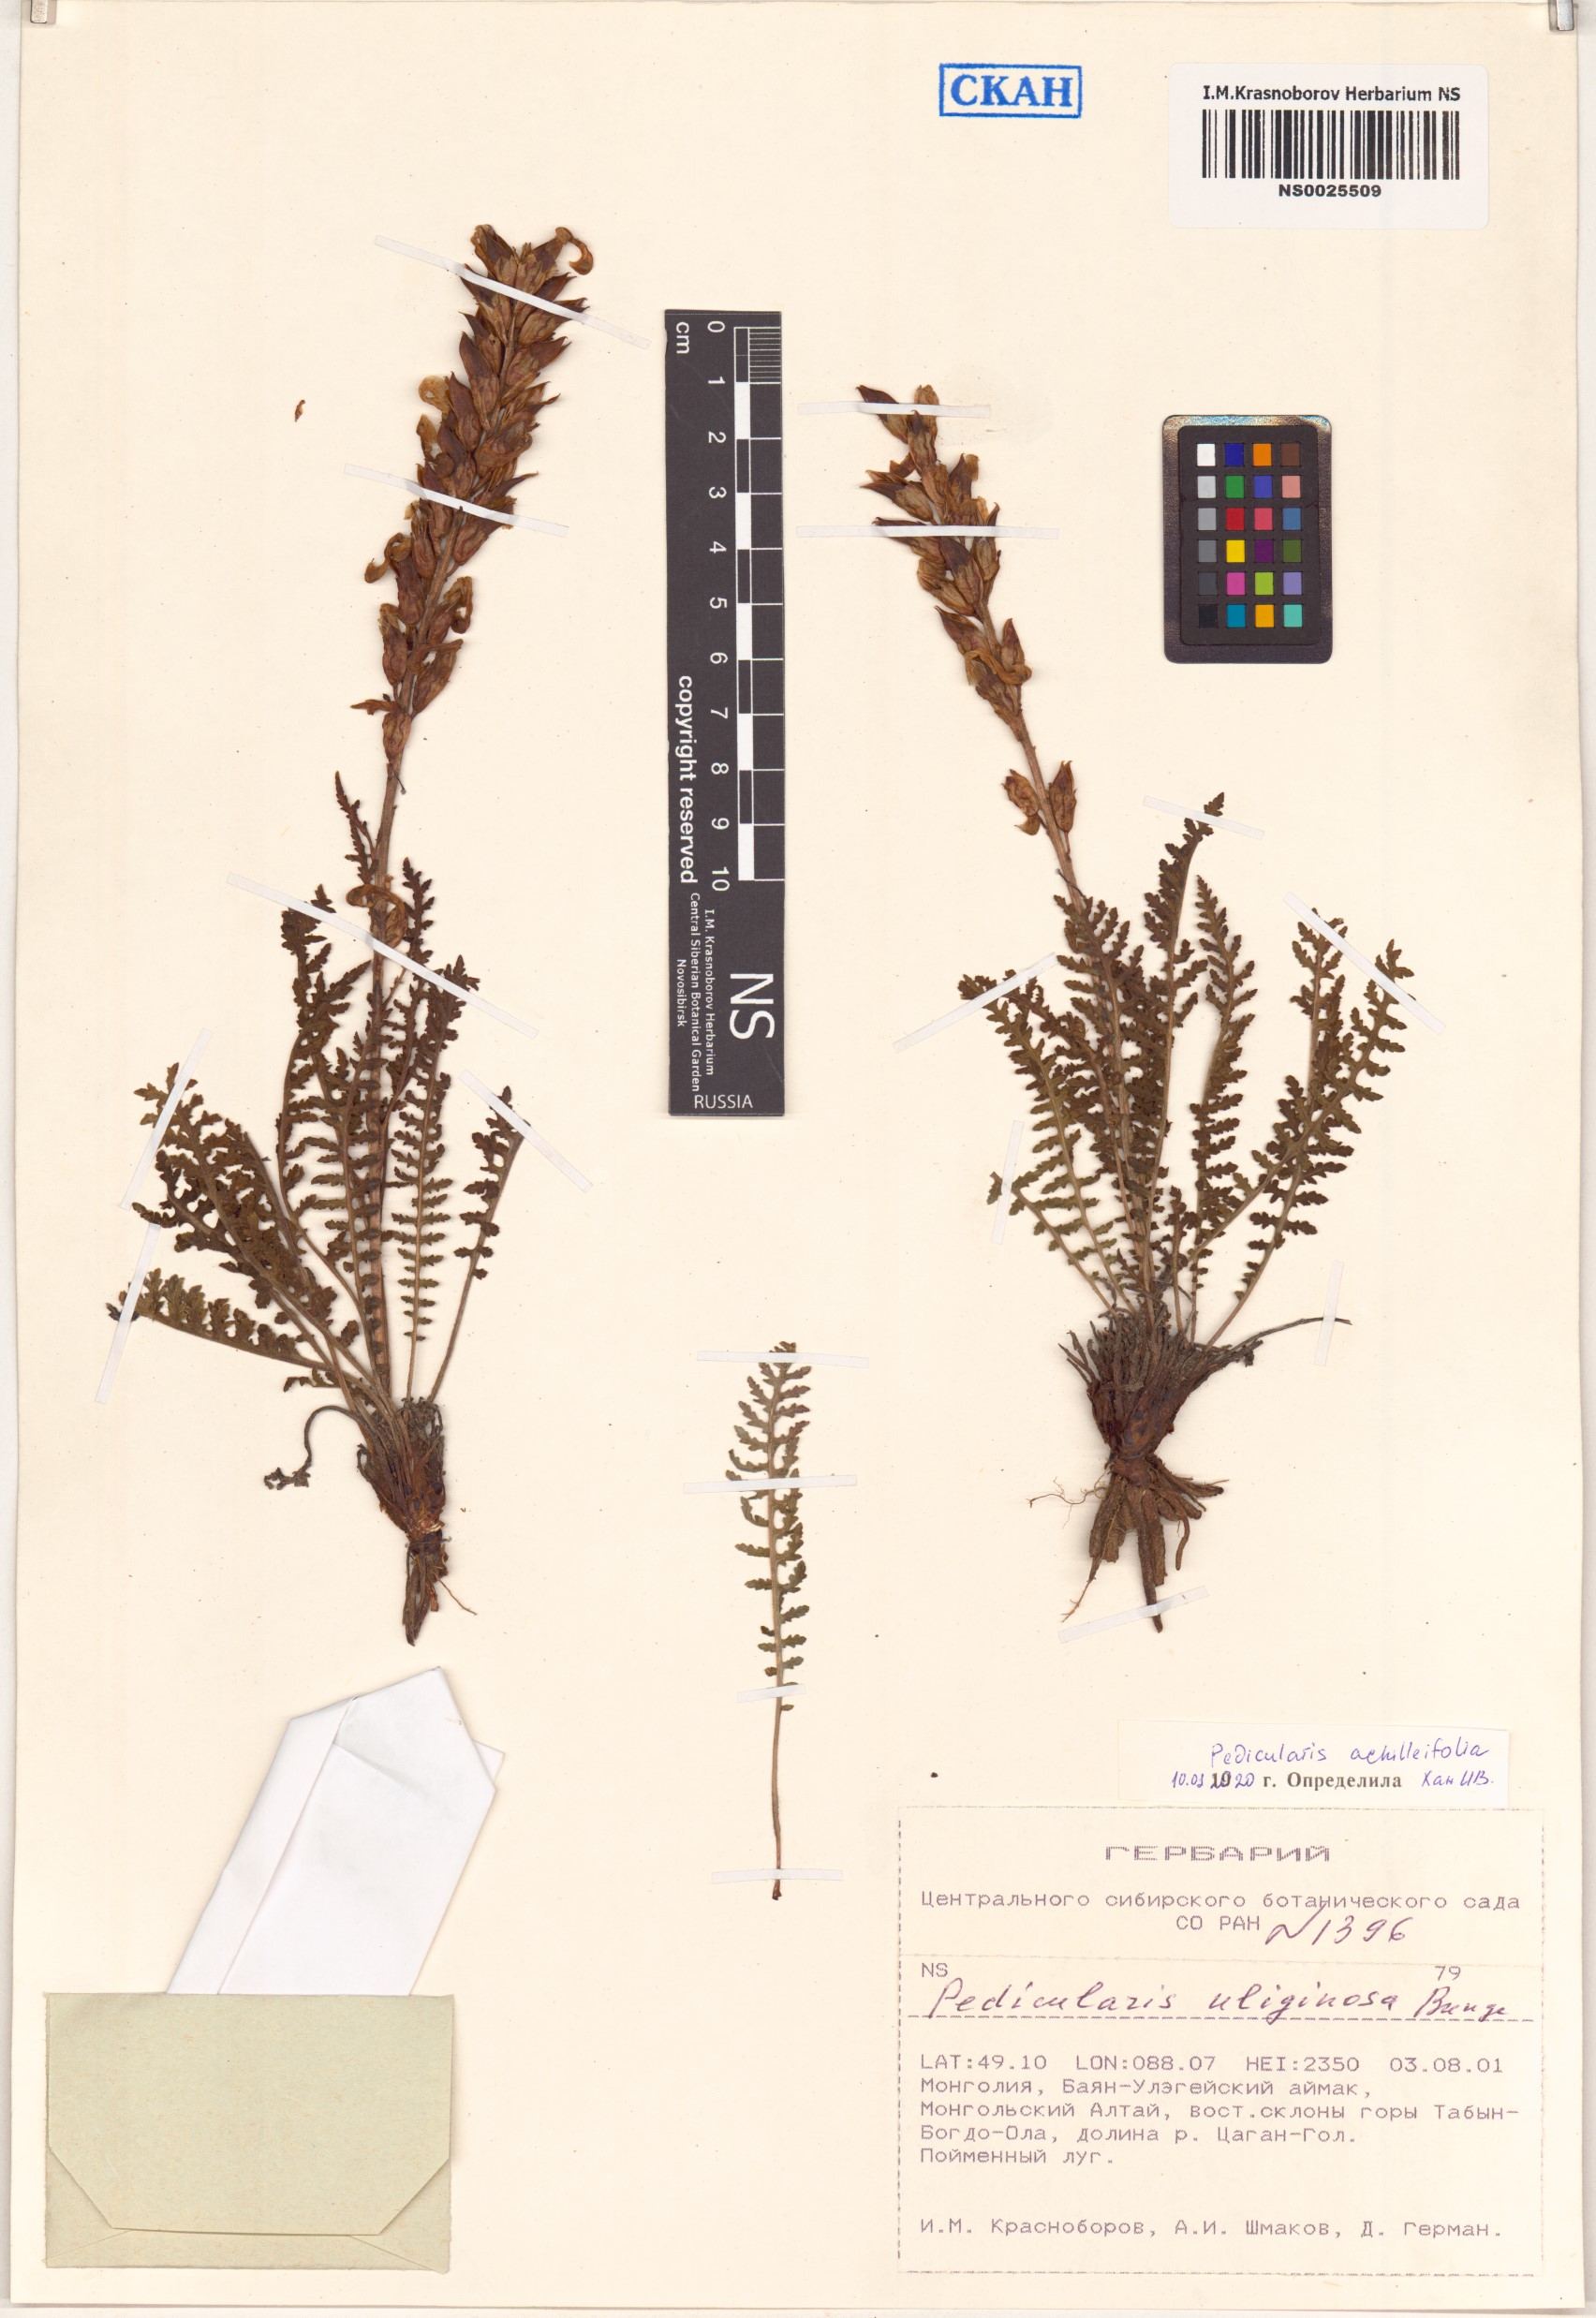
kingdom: Plantae
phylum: Tracheophyta
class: Magnoliopsida
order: Lamiales
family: Orobanchaceae
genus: Pedicularis
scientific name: Pedicularis achilleifolia
